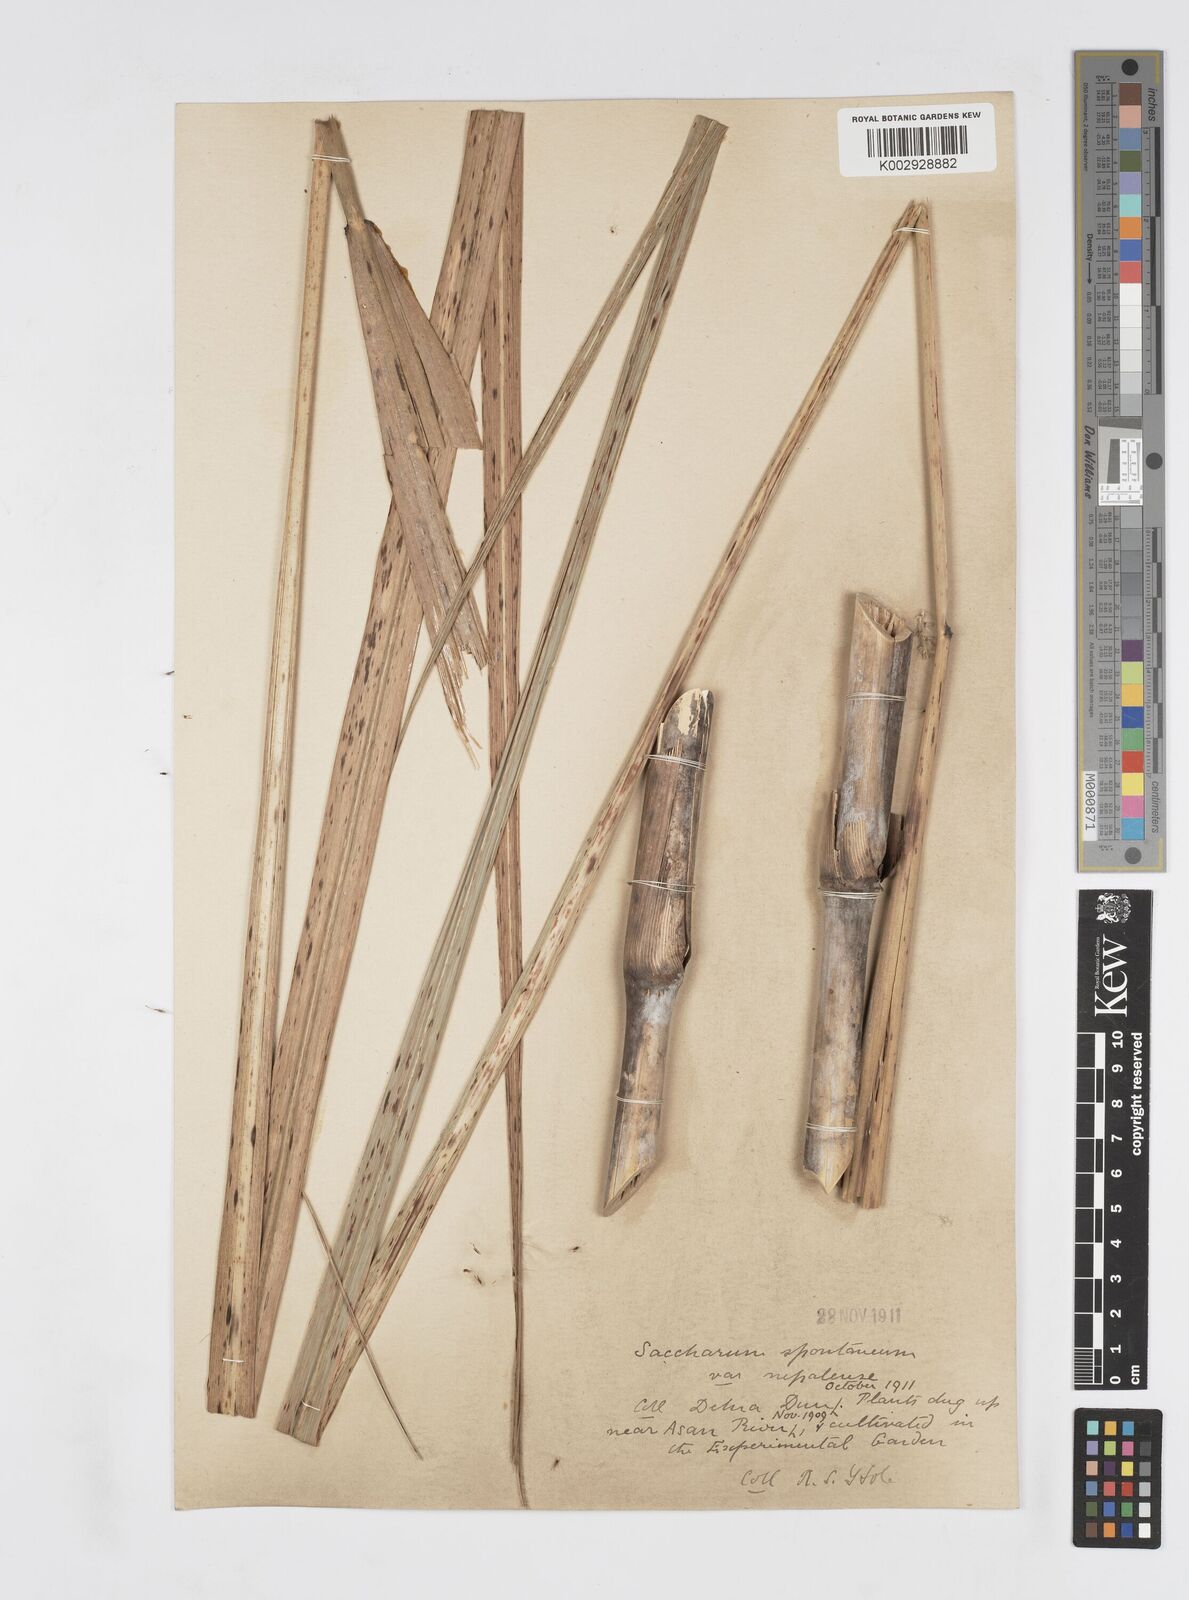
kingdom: Plantae
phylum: Tracheophyta
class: Liliopsida
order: Poales
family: Poaceae
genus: Saccharum
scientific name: Saccharum spontaneum
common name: Wild sugarcane
